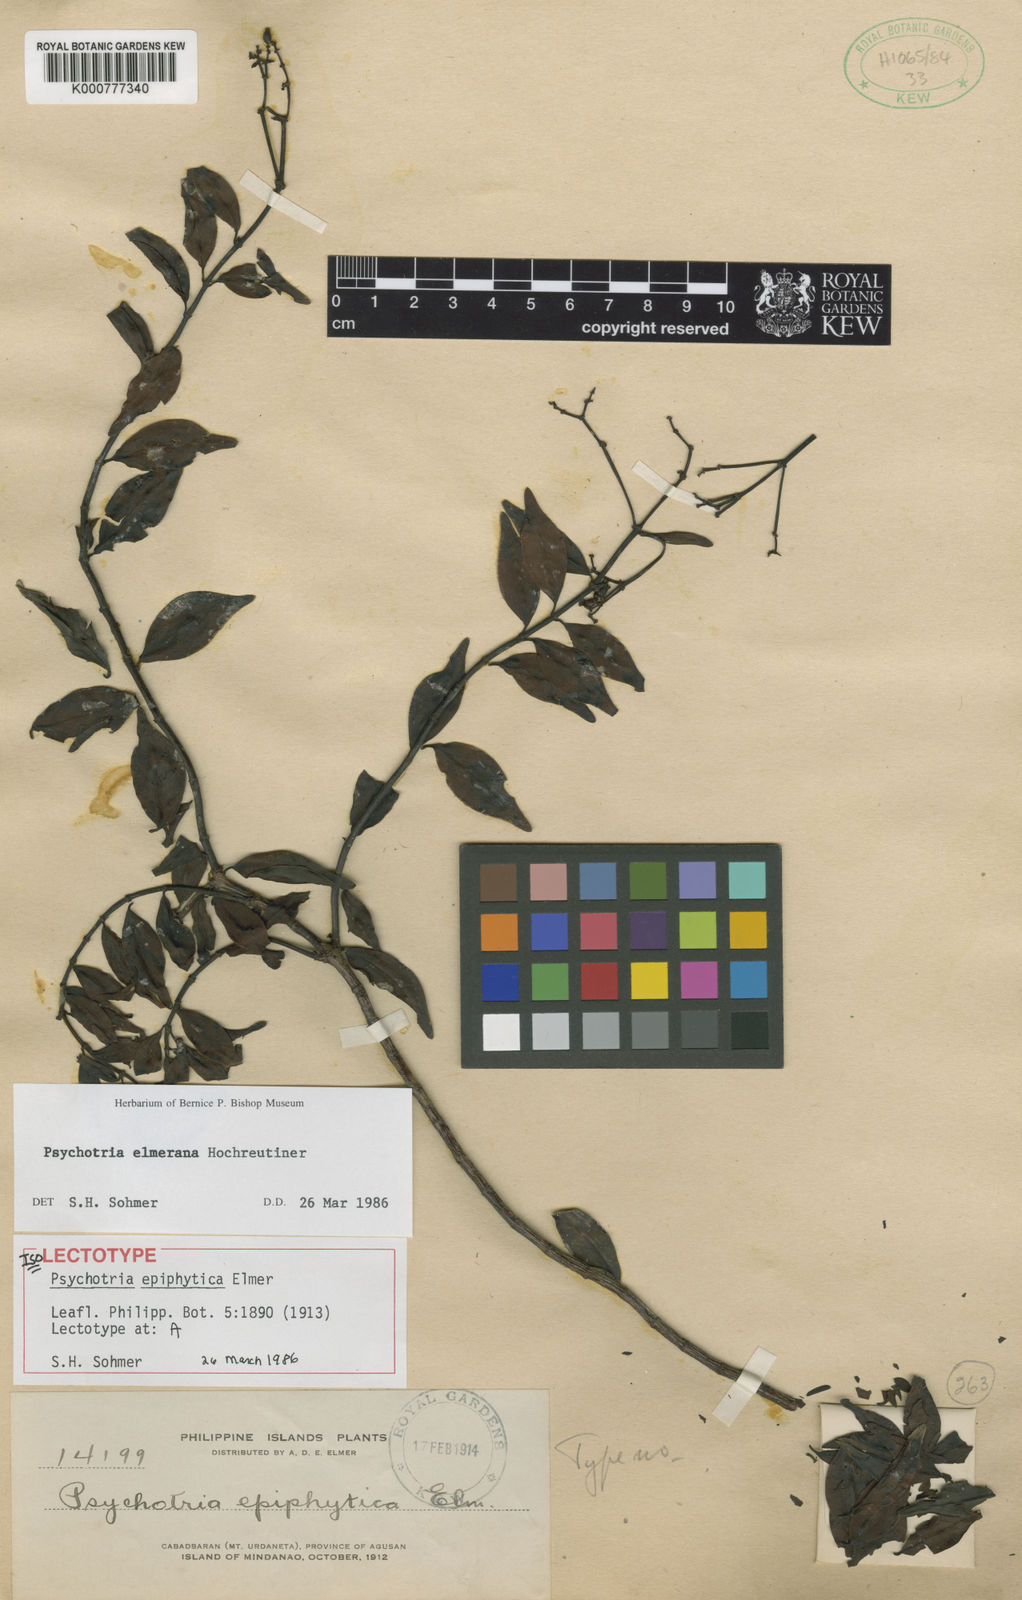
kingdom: Plantae
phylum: Tracheophyta
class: Magnoliopsida
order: Gentianales
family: Rubiaceae
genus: Psychotria
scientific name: Psychotria elmeriana
